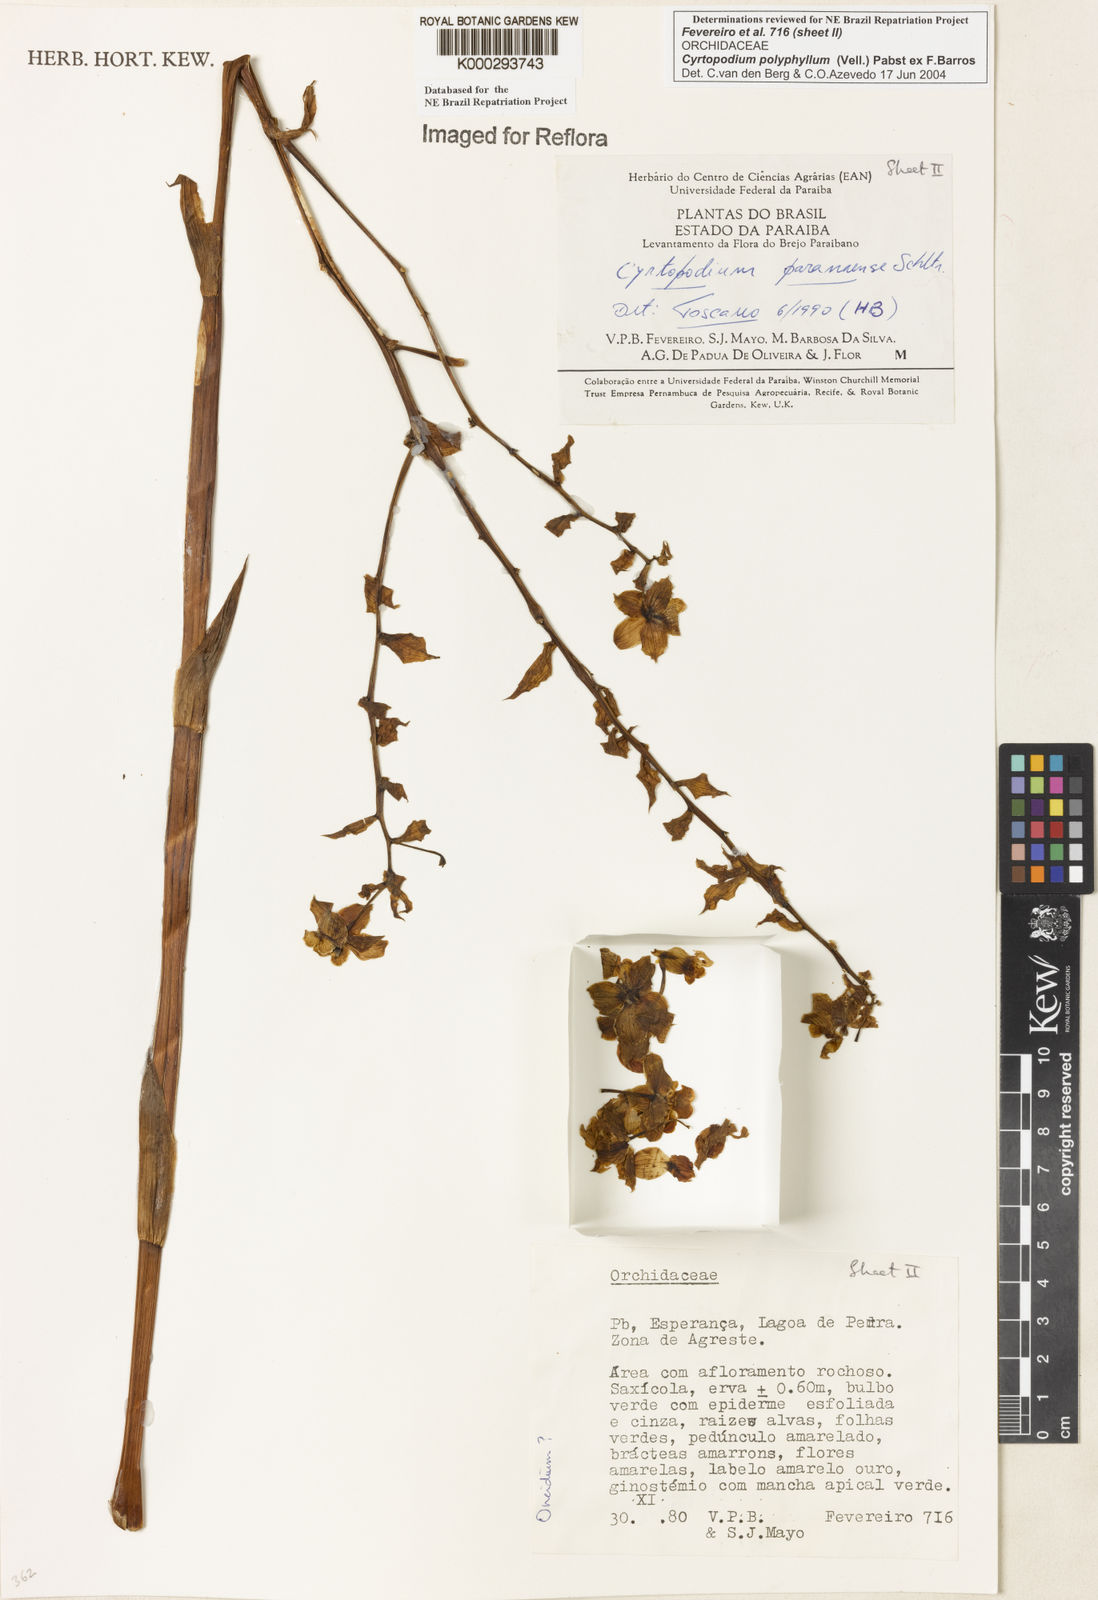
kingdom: Plantae
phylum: Tracheophyta
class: Liliopsida
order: Asparagales
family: Orchidaceae
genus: Cyrtopodium
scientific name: Cyrtopodium flavum
